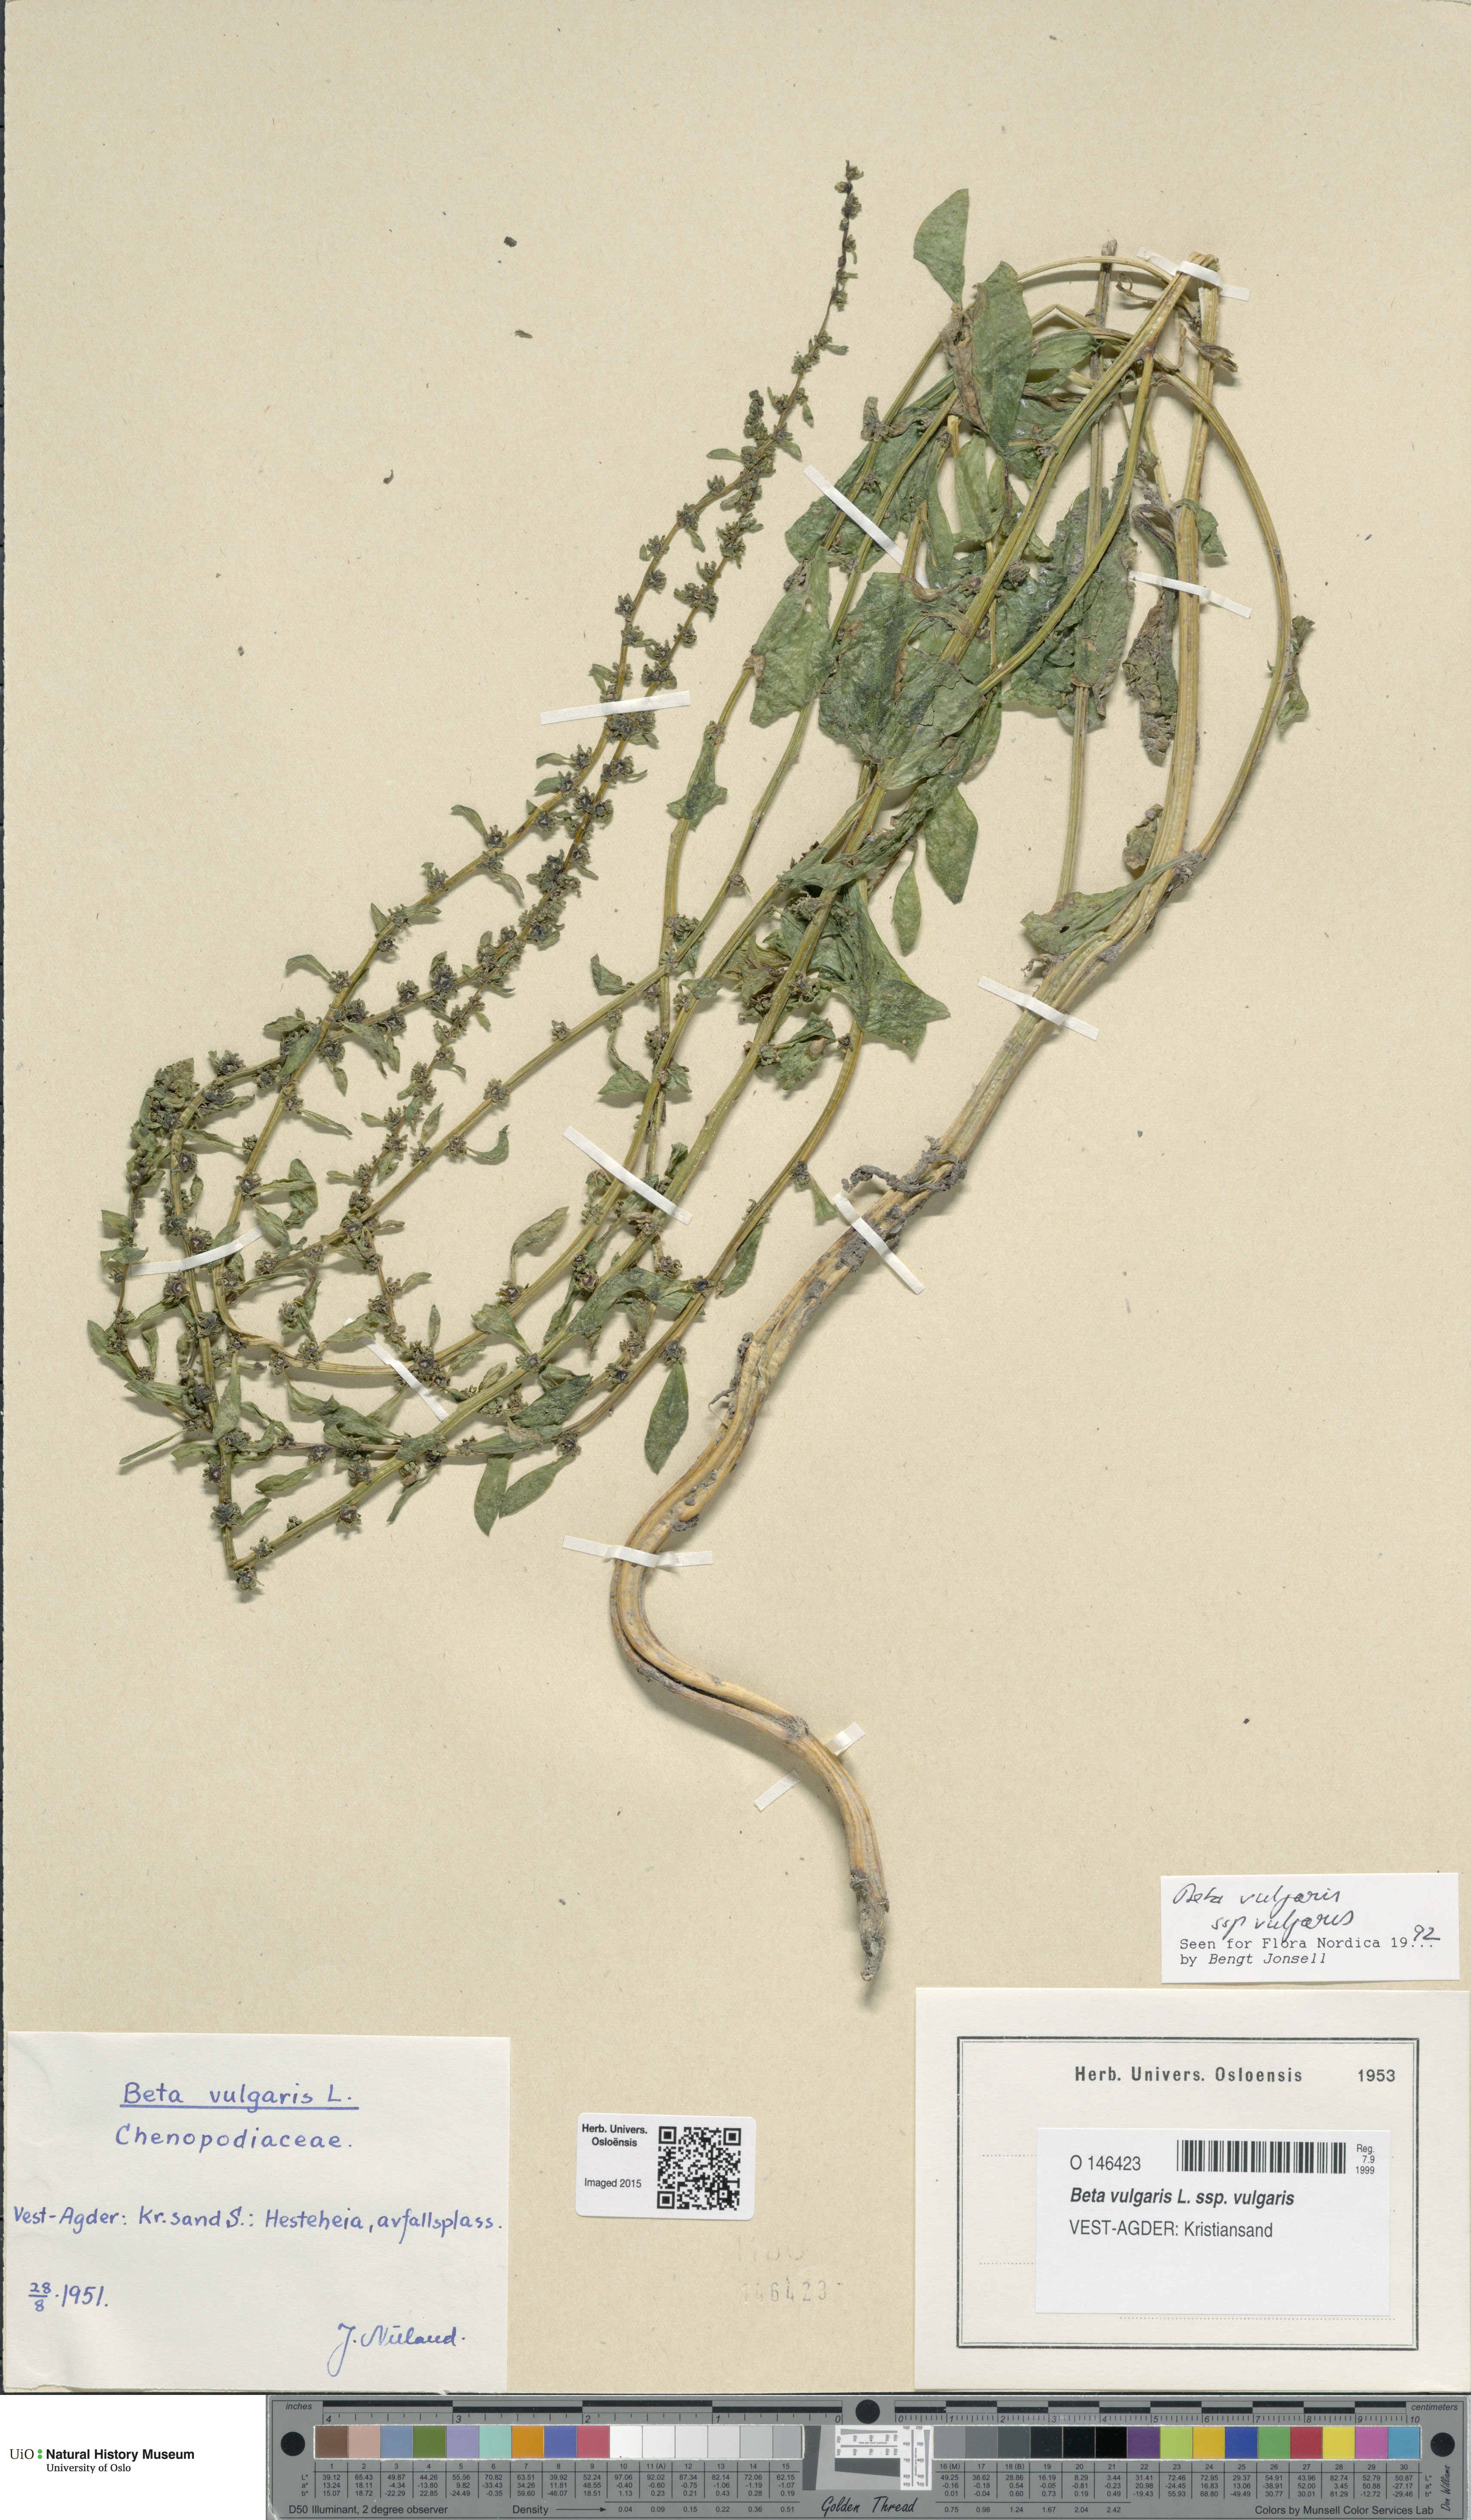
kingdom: Plantae
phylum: Tracheophyta
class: Magnoliopsida
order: Caryophyllales
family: Amaranthaceae
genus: Beta
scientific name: Beta vulgaris
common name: Beet
